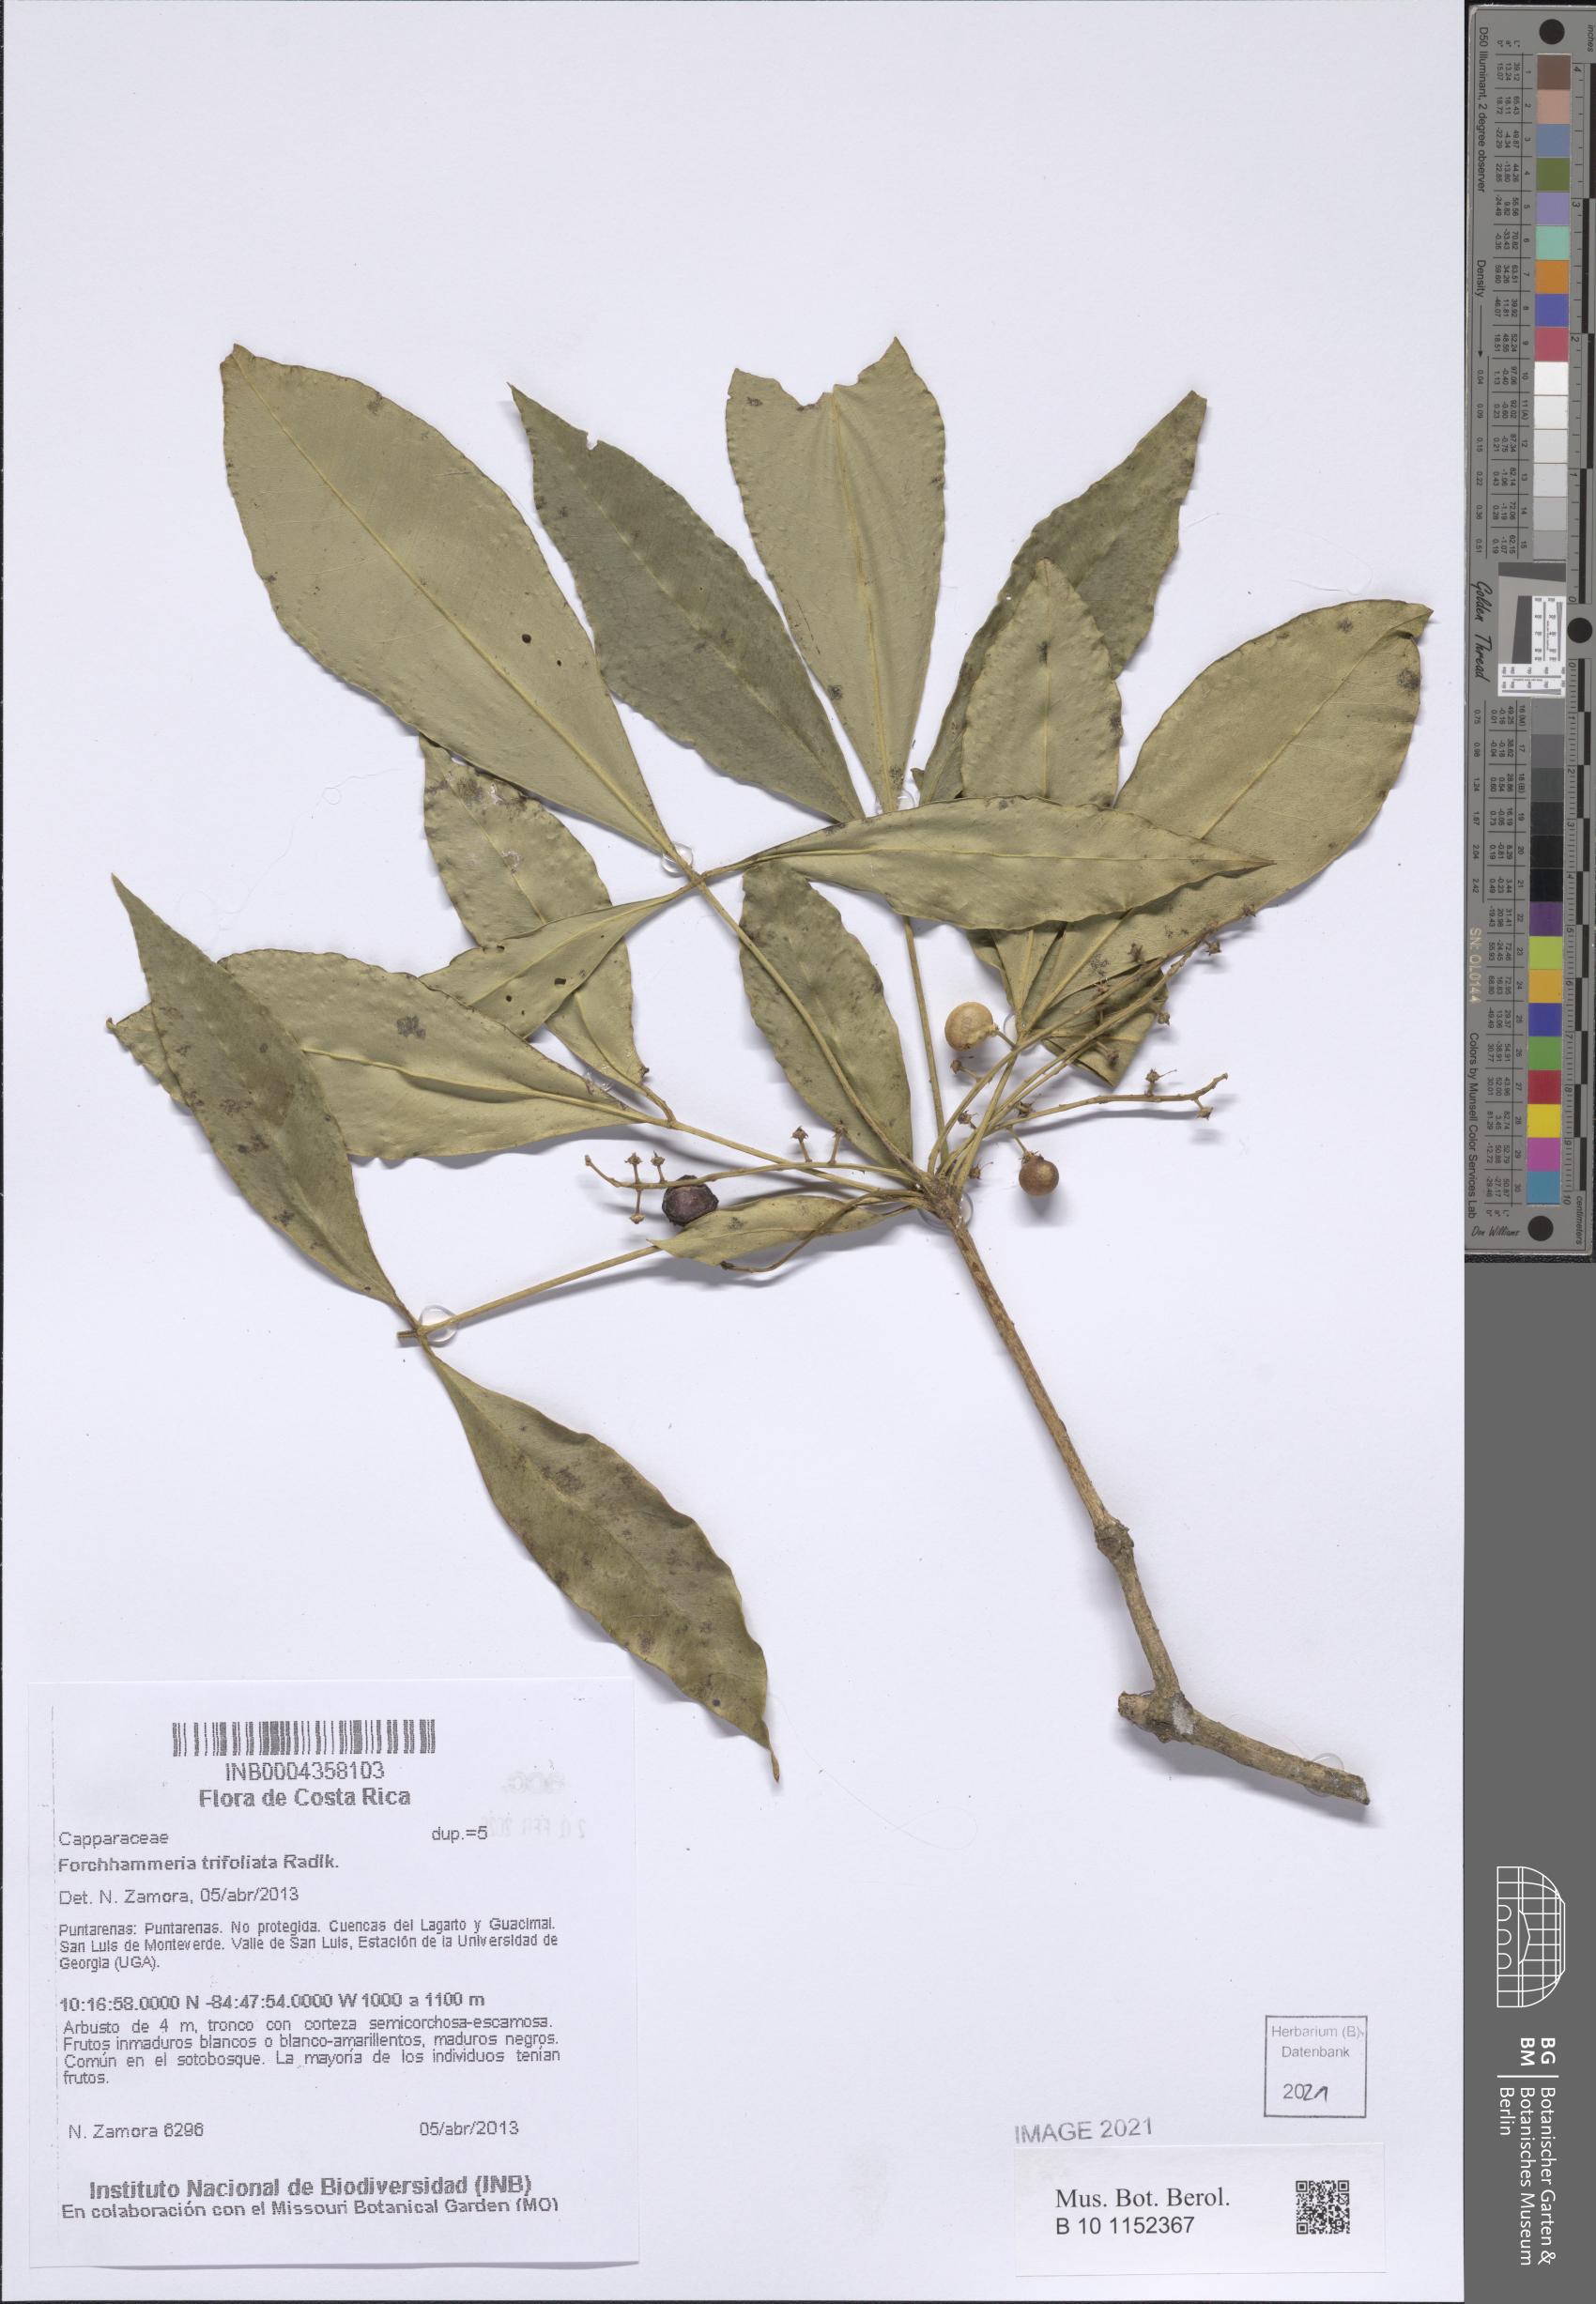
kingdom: Plantae
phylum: Tracheophyta
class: Magnoliopsida
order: Brassicales
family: Stixaceae
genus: Forchhammeria
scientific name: Forchhammeria trifoliata
